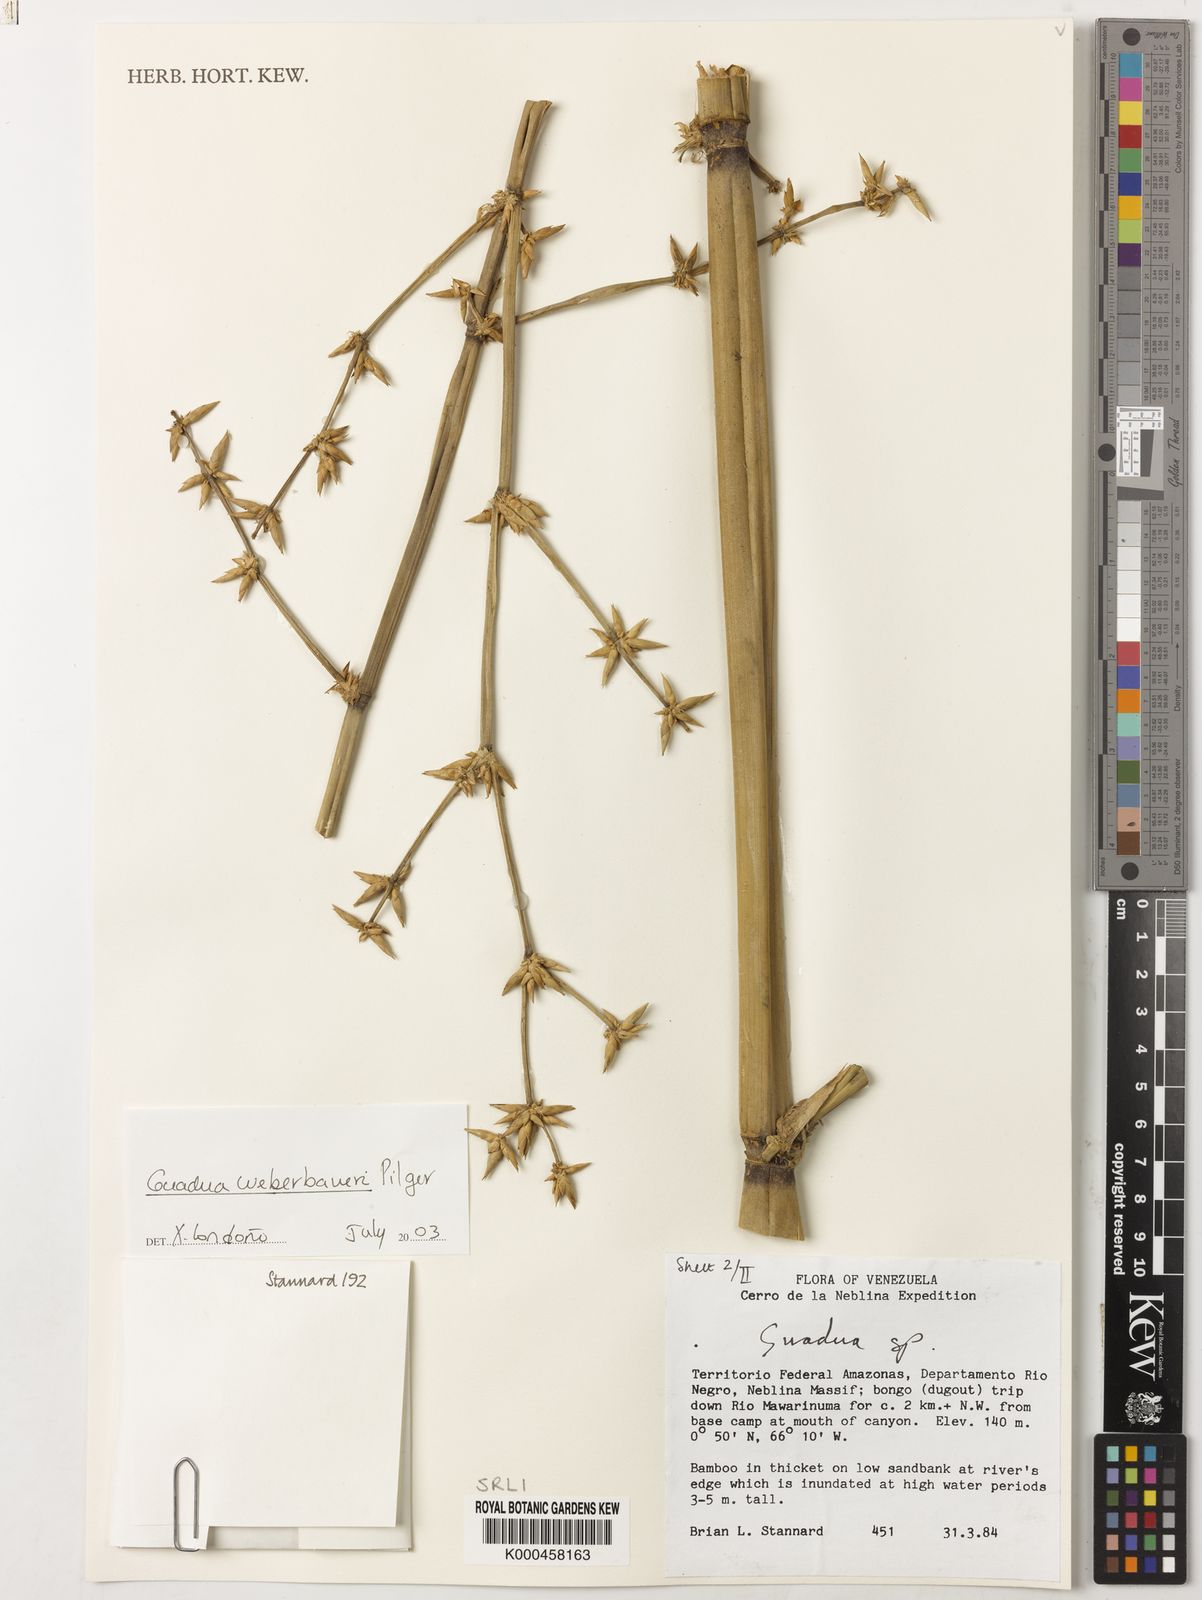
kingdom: Plantae
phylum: Tracheophyta
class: Liliopsida
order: Poales
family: Poaceae
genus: Guadua
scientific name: Guadua weberbaueri
